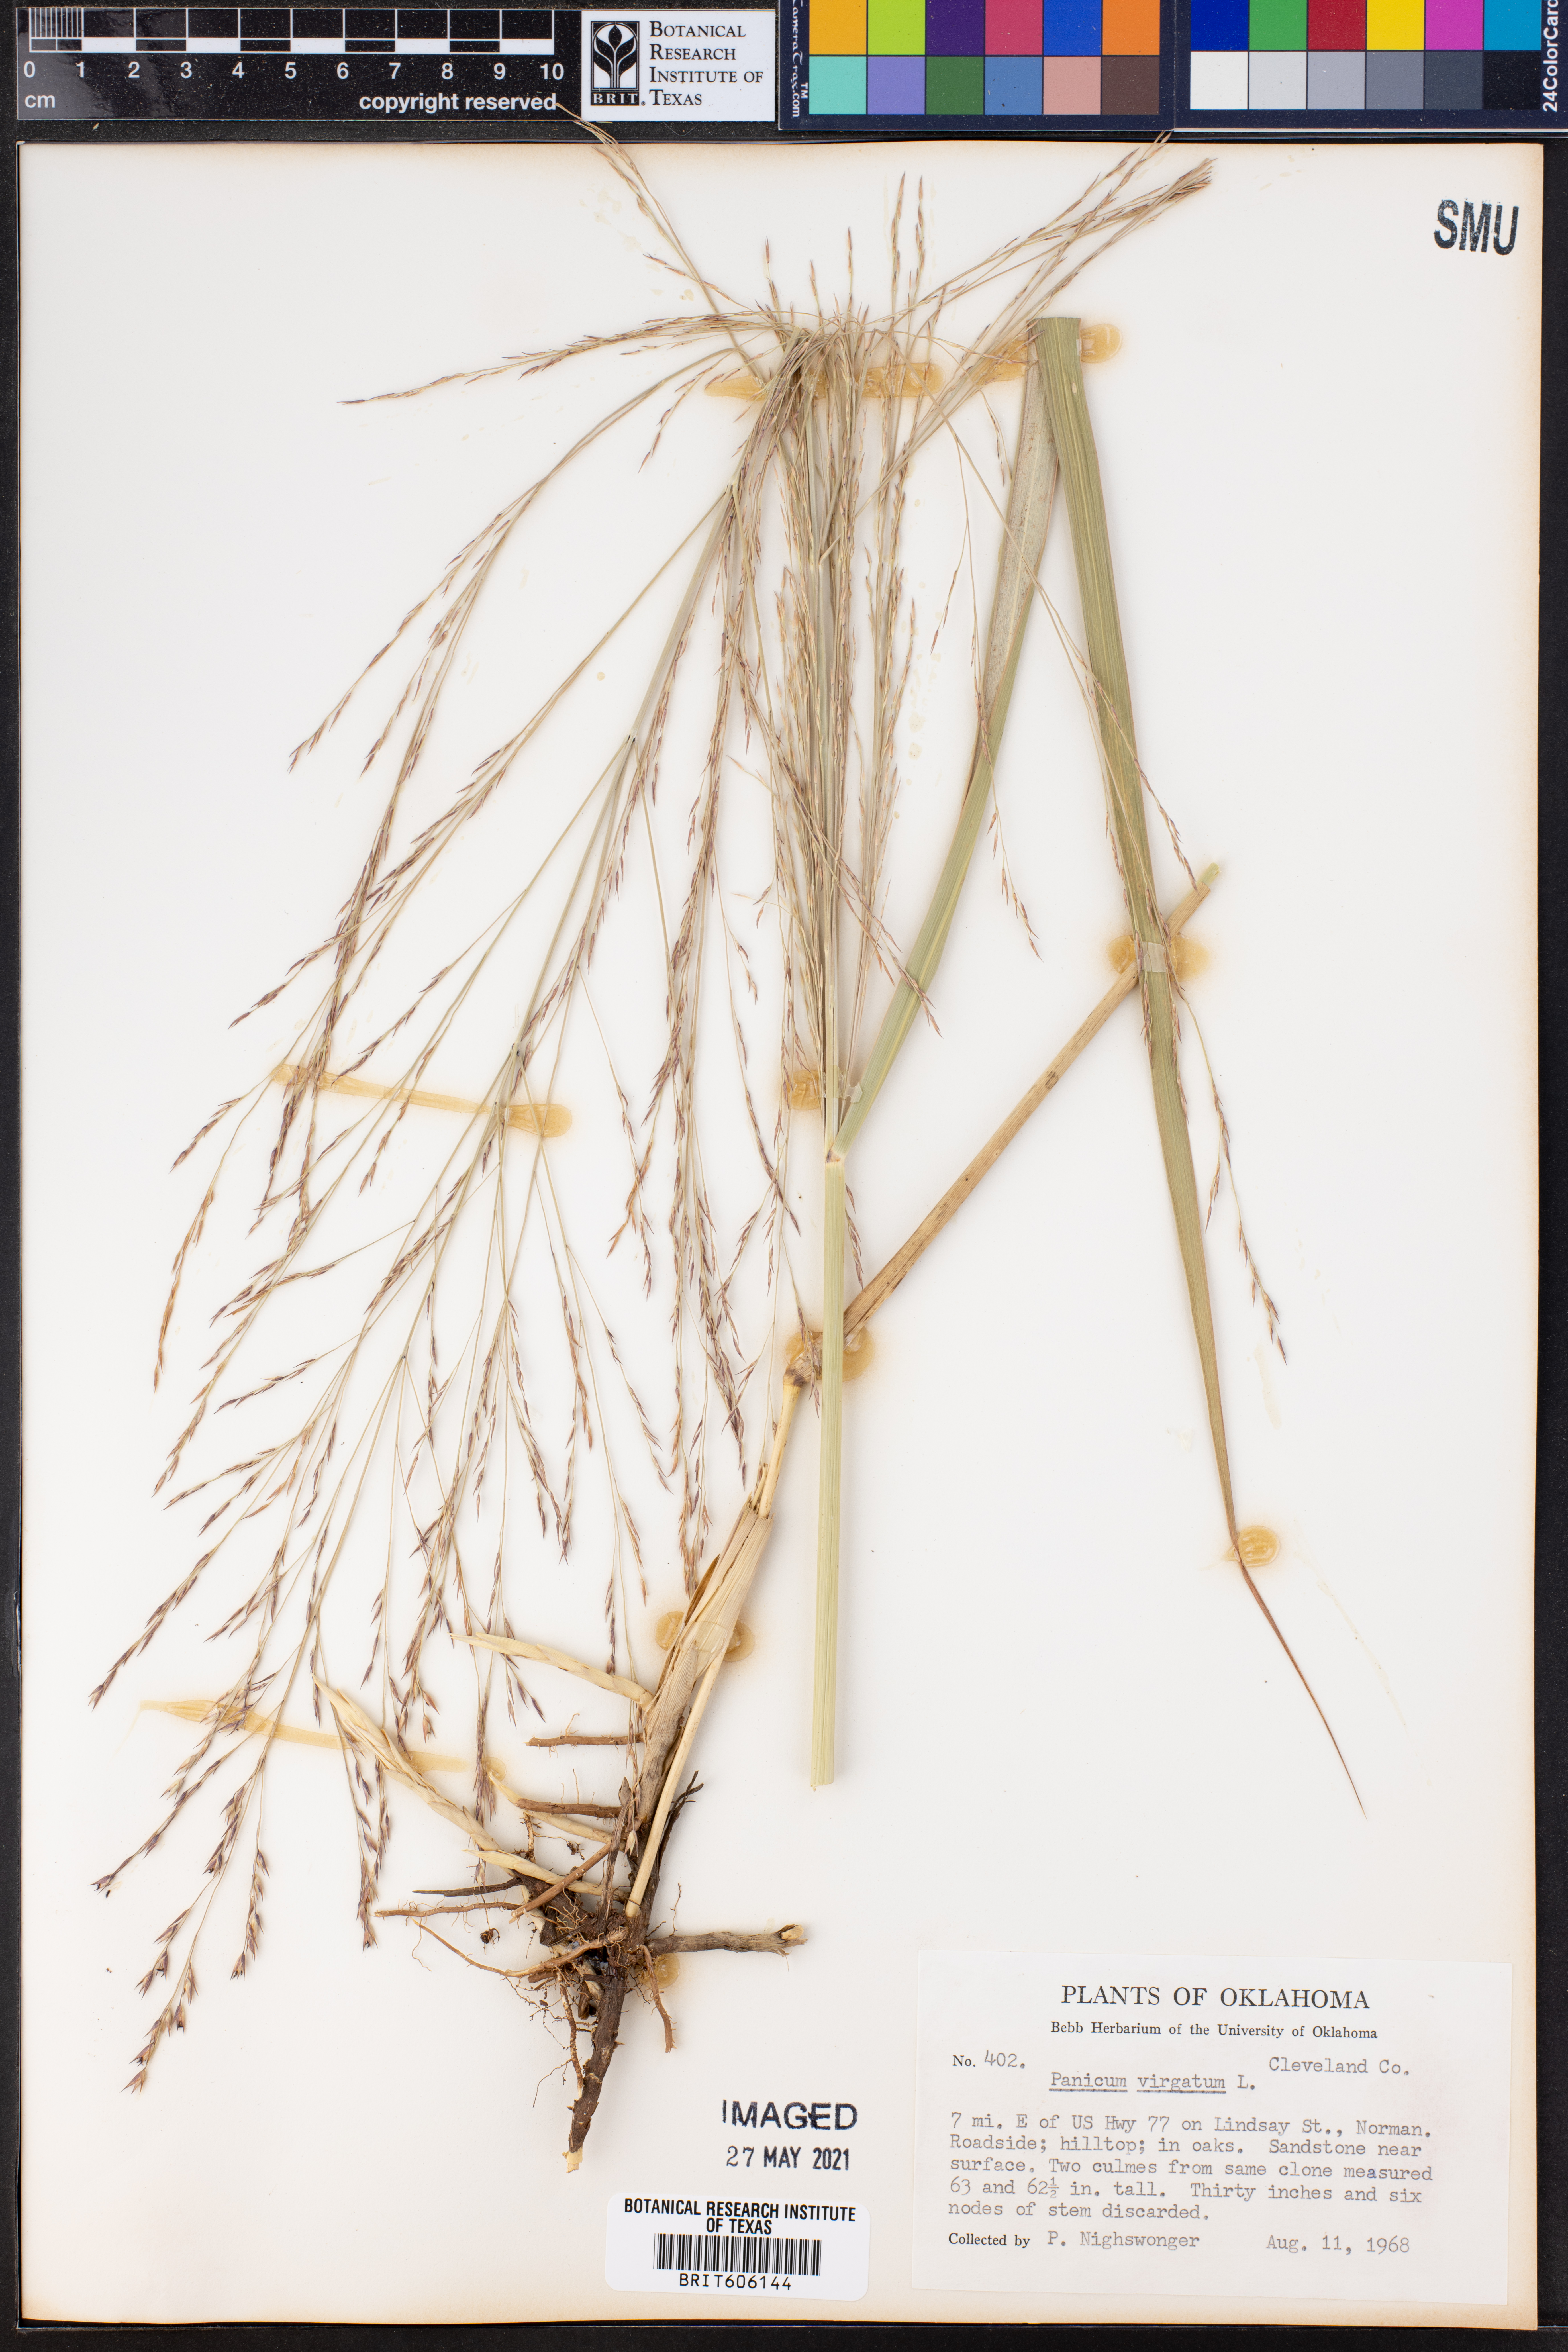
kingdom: Plantae
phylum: Tracheophyta
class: Liliopsida
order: Poales
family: Poaceae
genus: Panicum
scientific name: Panicum virgatum
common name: Switchgrass
